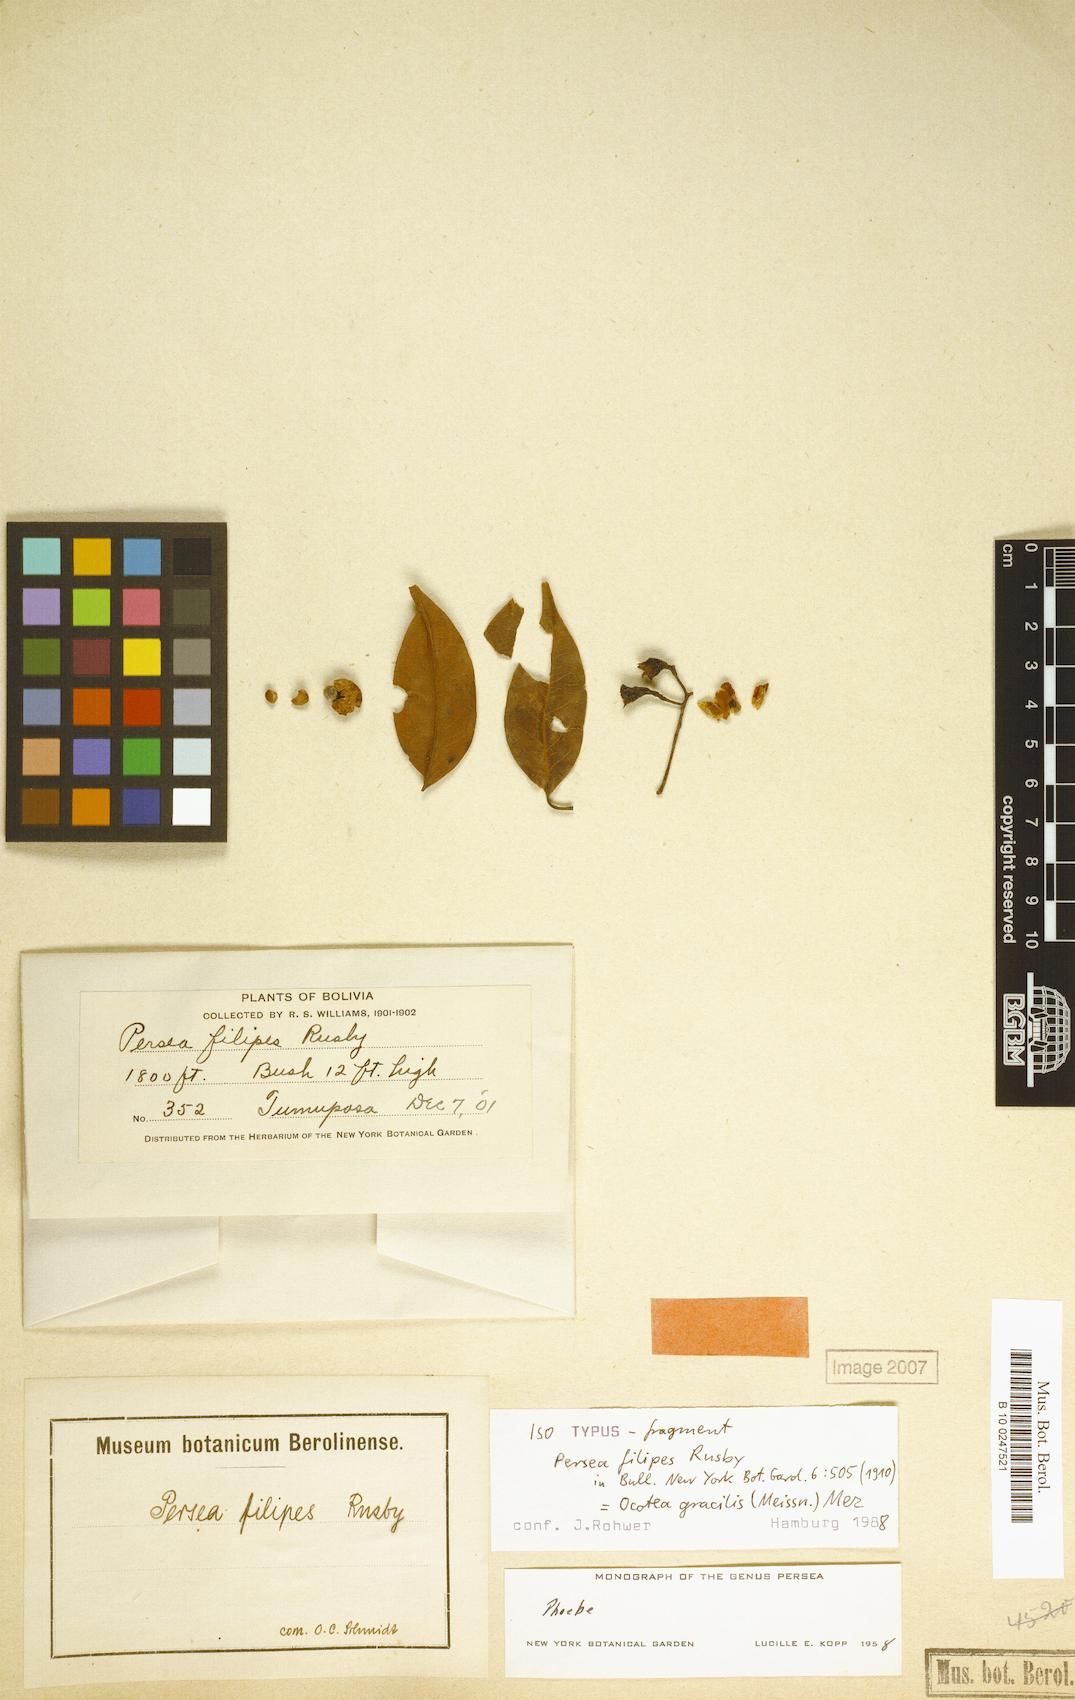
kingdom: Plantae
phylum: Tracheophyta
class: Magnoliopsida
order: Laurales
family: Lauraceae
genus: Ocotea
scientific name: Ocotea gracilis
